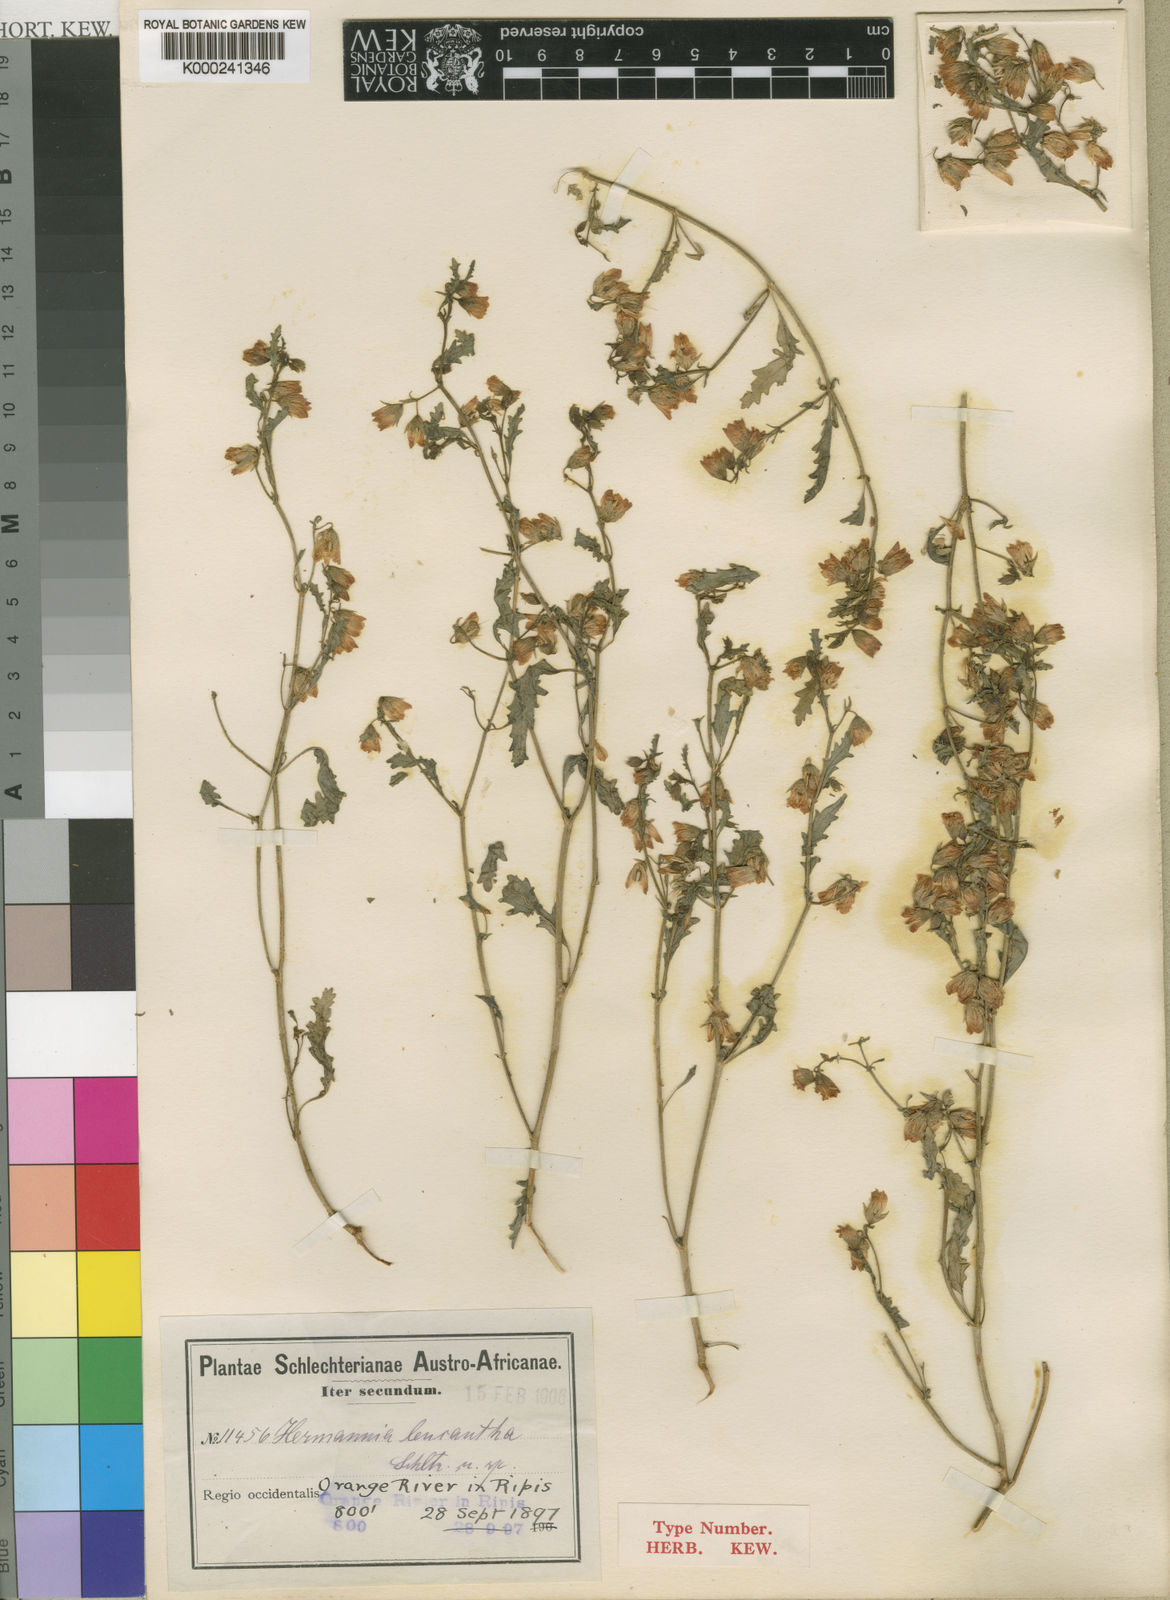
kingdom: Plantae
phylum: Tracheophyta
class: Magnoliopsida
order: Malvales
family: Malvaceae
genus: Hermannia
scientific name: Hermannia leucantha
